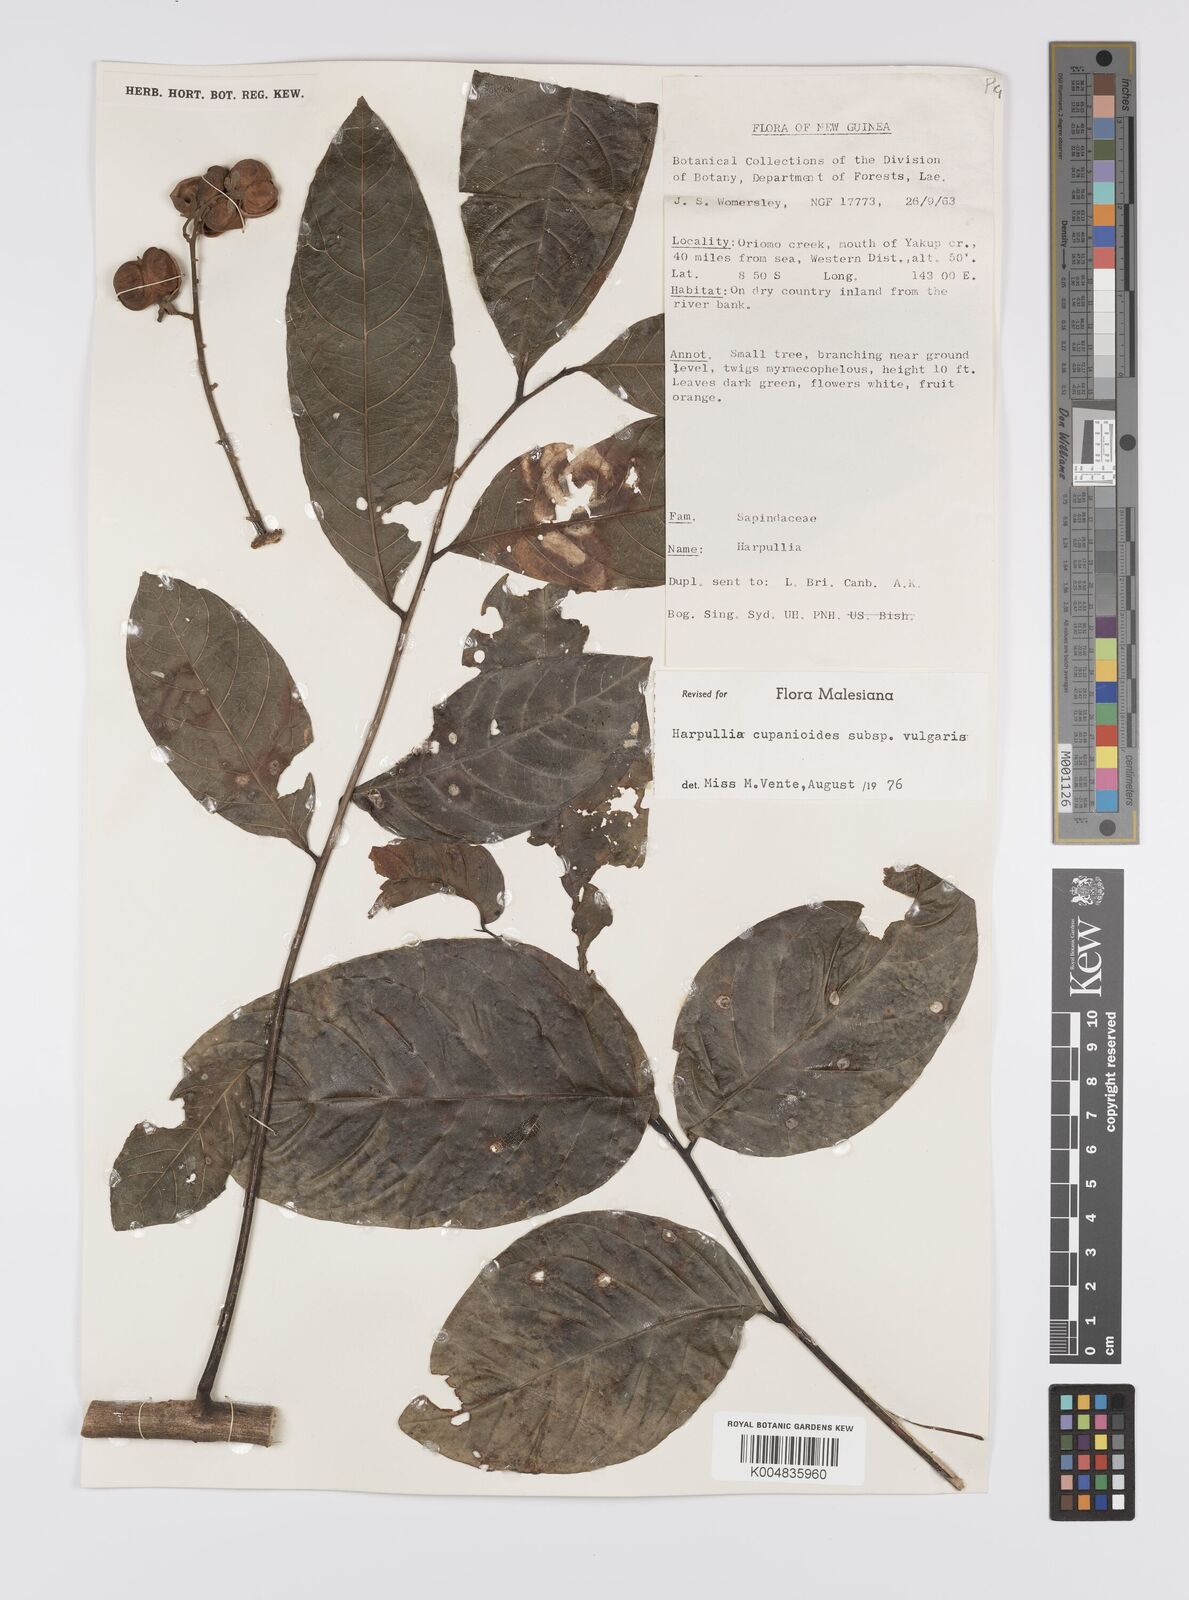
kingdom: Plantae
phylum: Tracheophyta
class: Magnoliopsida
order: Sapindales
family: Sapindaceae
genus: Harpullia
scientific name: Harpullia cupanioides
